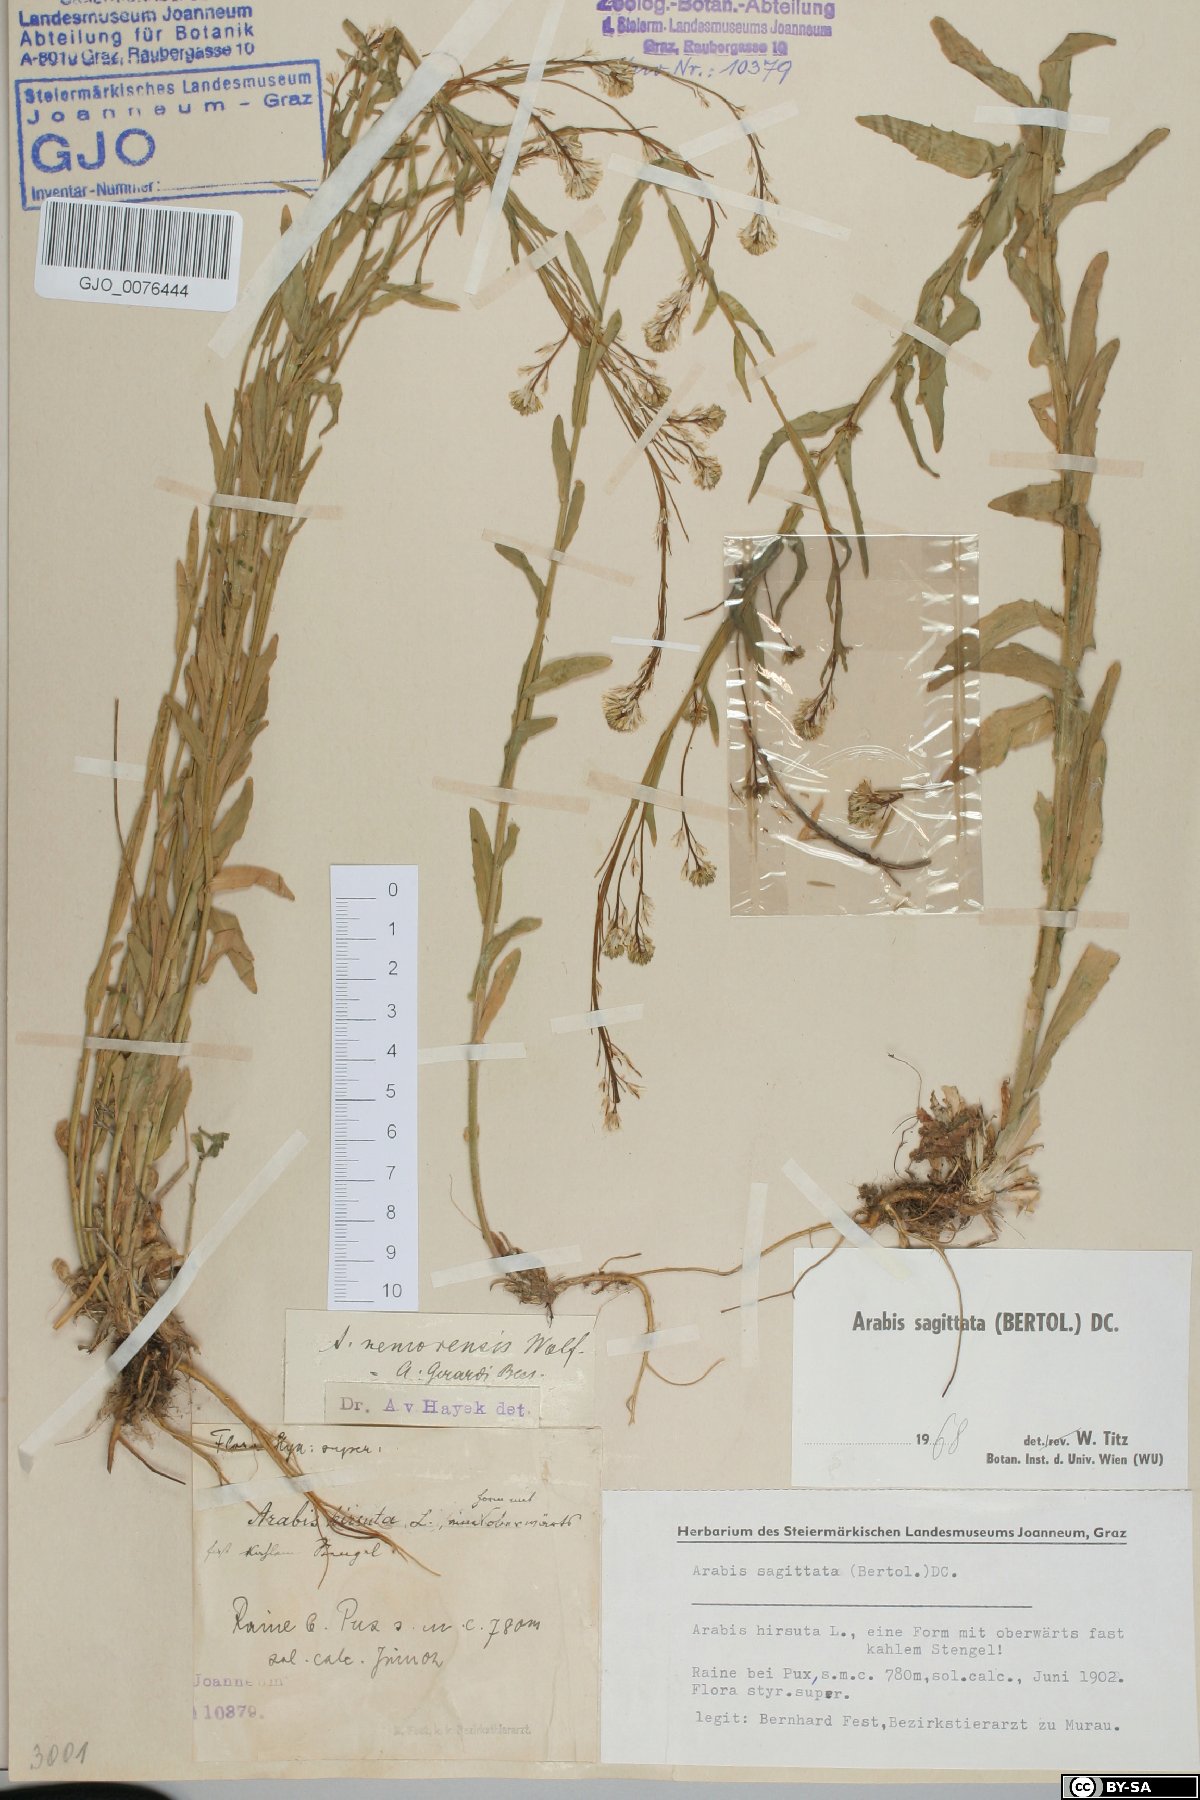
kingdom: Plantae
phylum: Tracheophyta
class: Magnoliopsida
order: Brassicales
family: Brassicaceae
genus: Arabis
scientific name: Arabis sagittata
